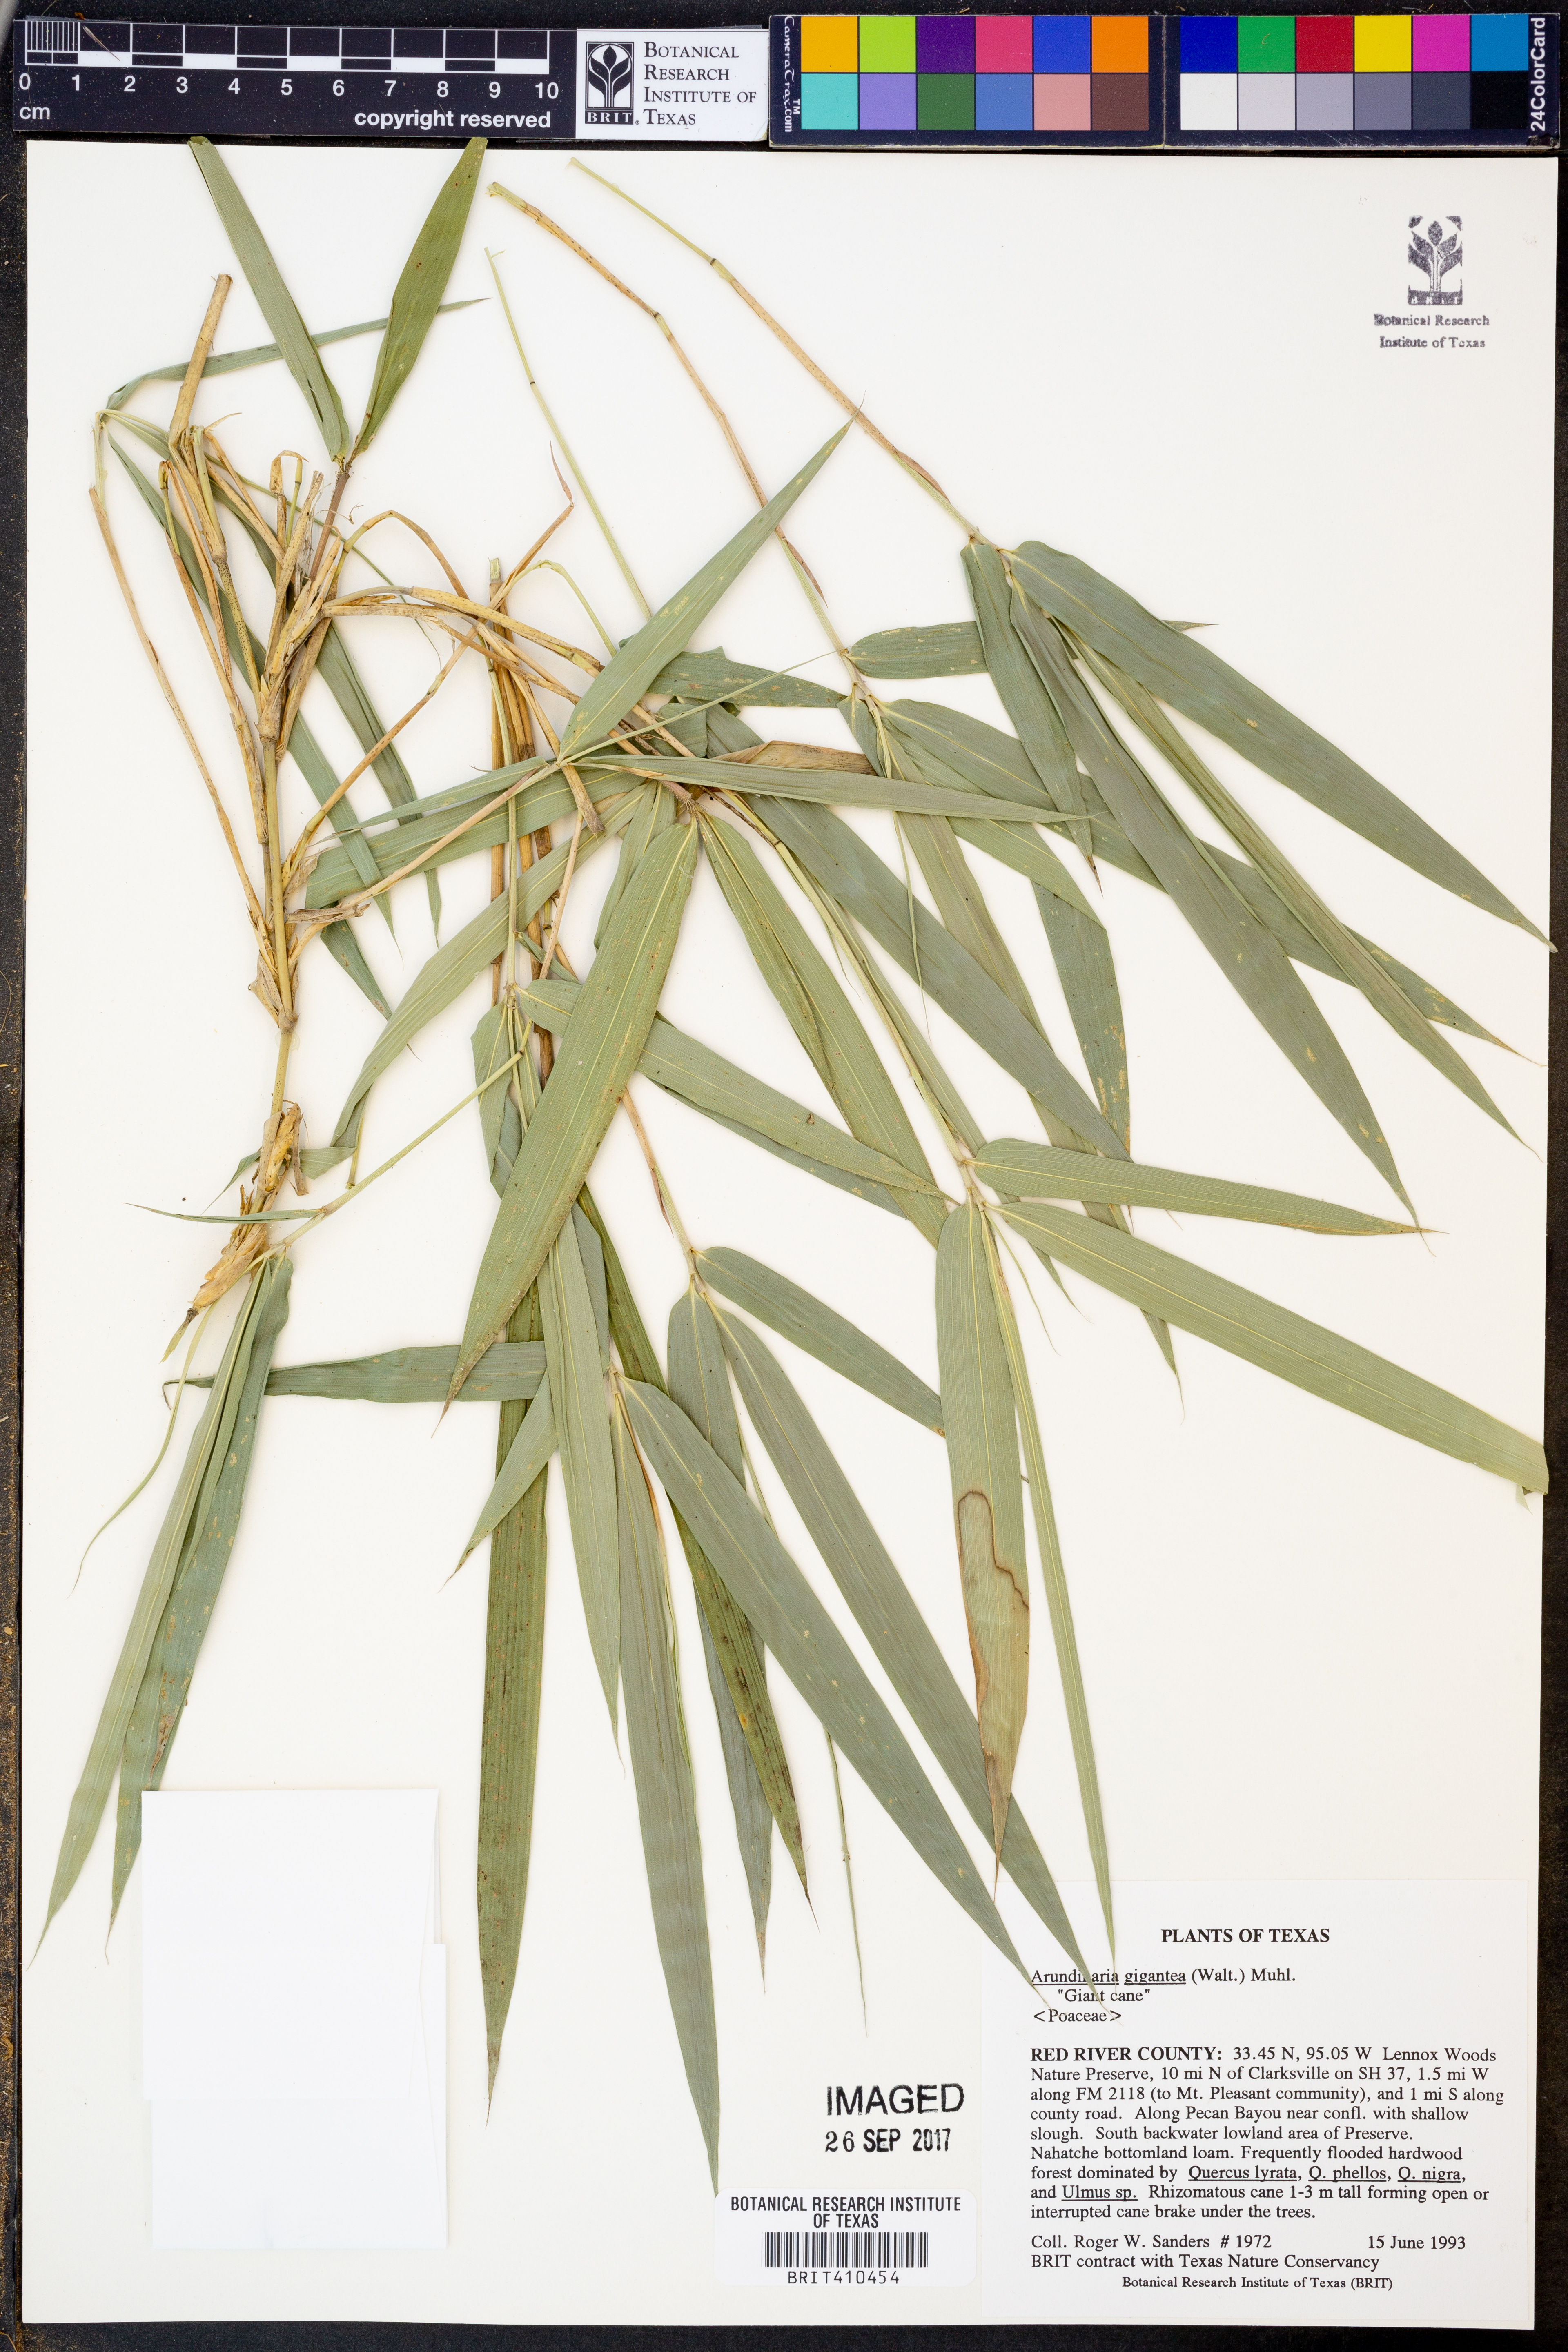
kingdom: Plantae
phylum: Tracheophyta
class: Liliopsida
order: Poales
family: Poaceae
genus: Arundinaria
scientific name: Arundinaria gigantea
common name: Giant cane
